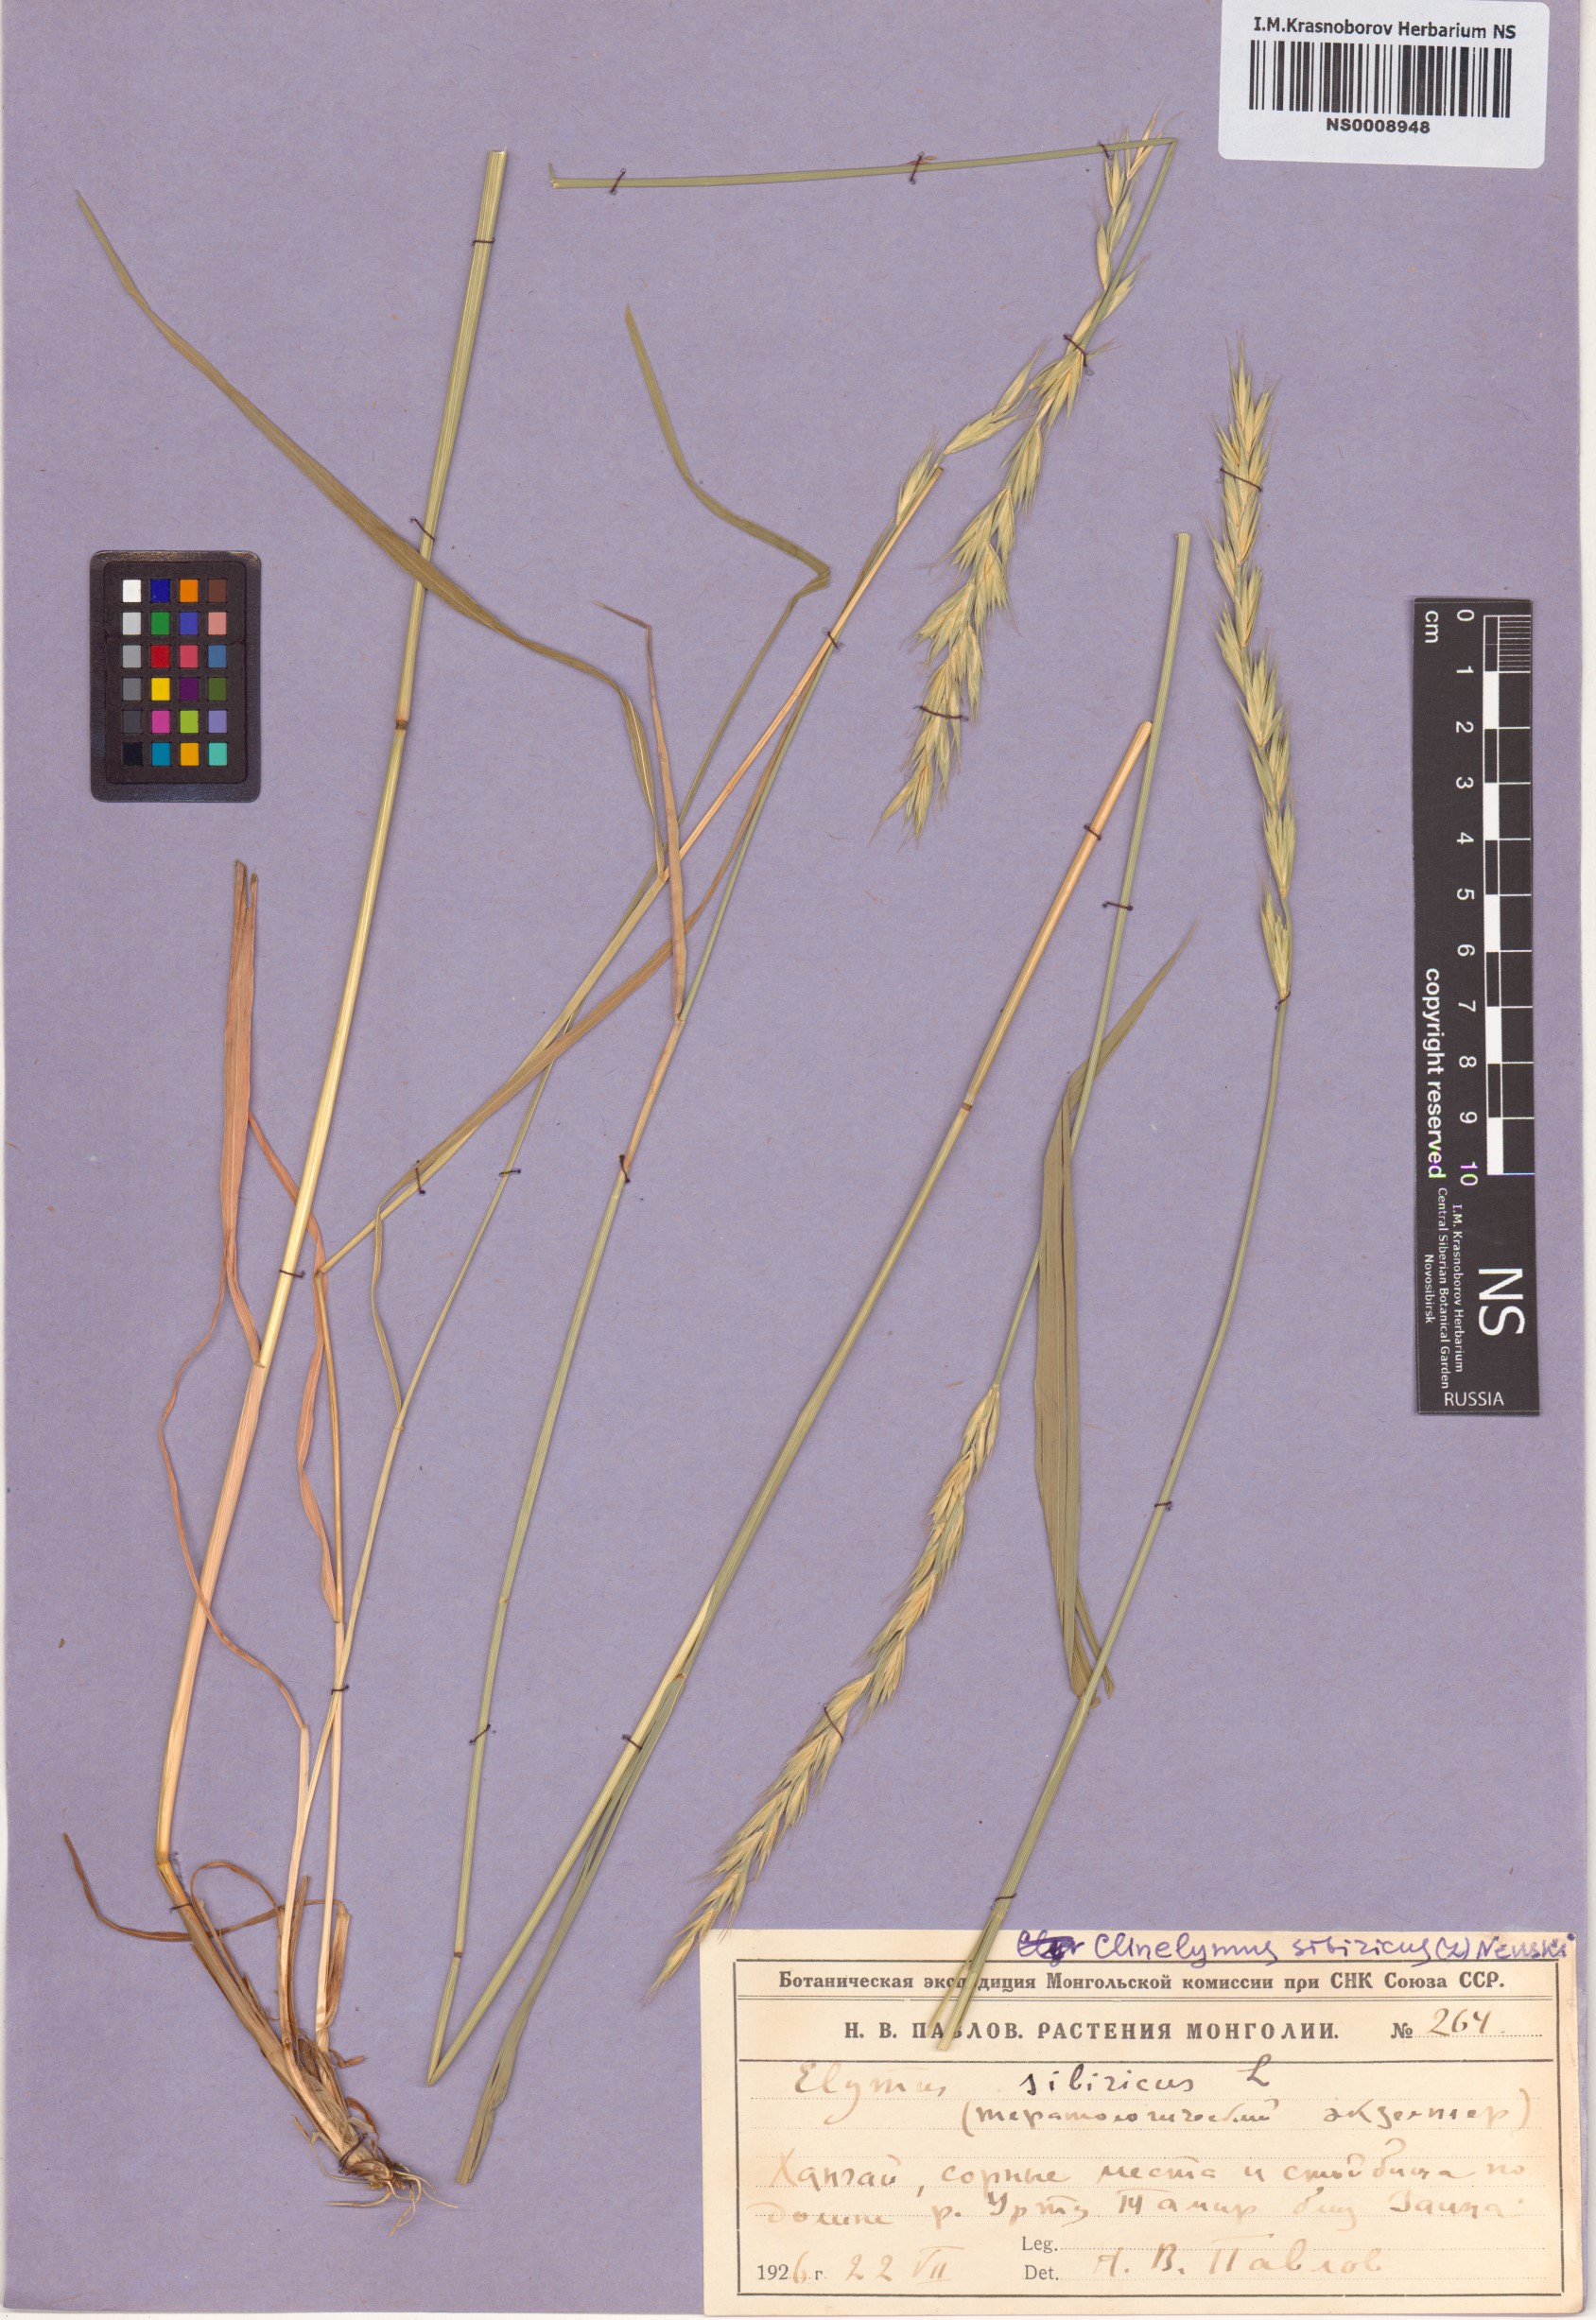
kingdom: Plantae
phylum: Tracheophyta
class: Liliopsida
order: Poales
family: Poaceae
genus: Elymus
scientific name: Elymus sibiricus
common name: Siberian wildrye
